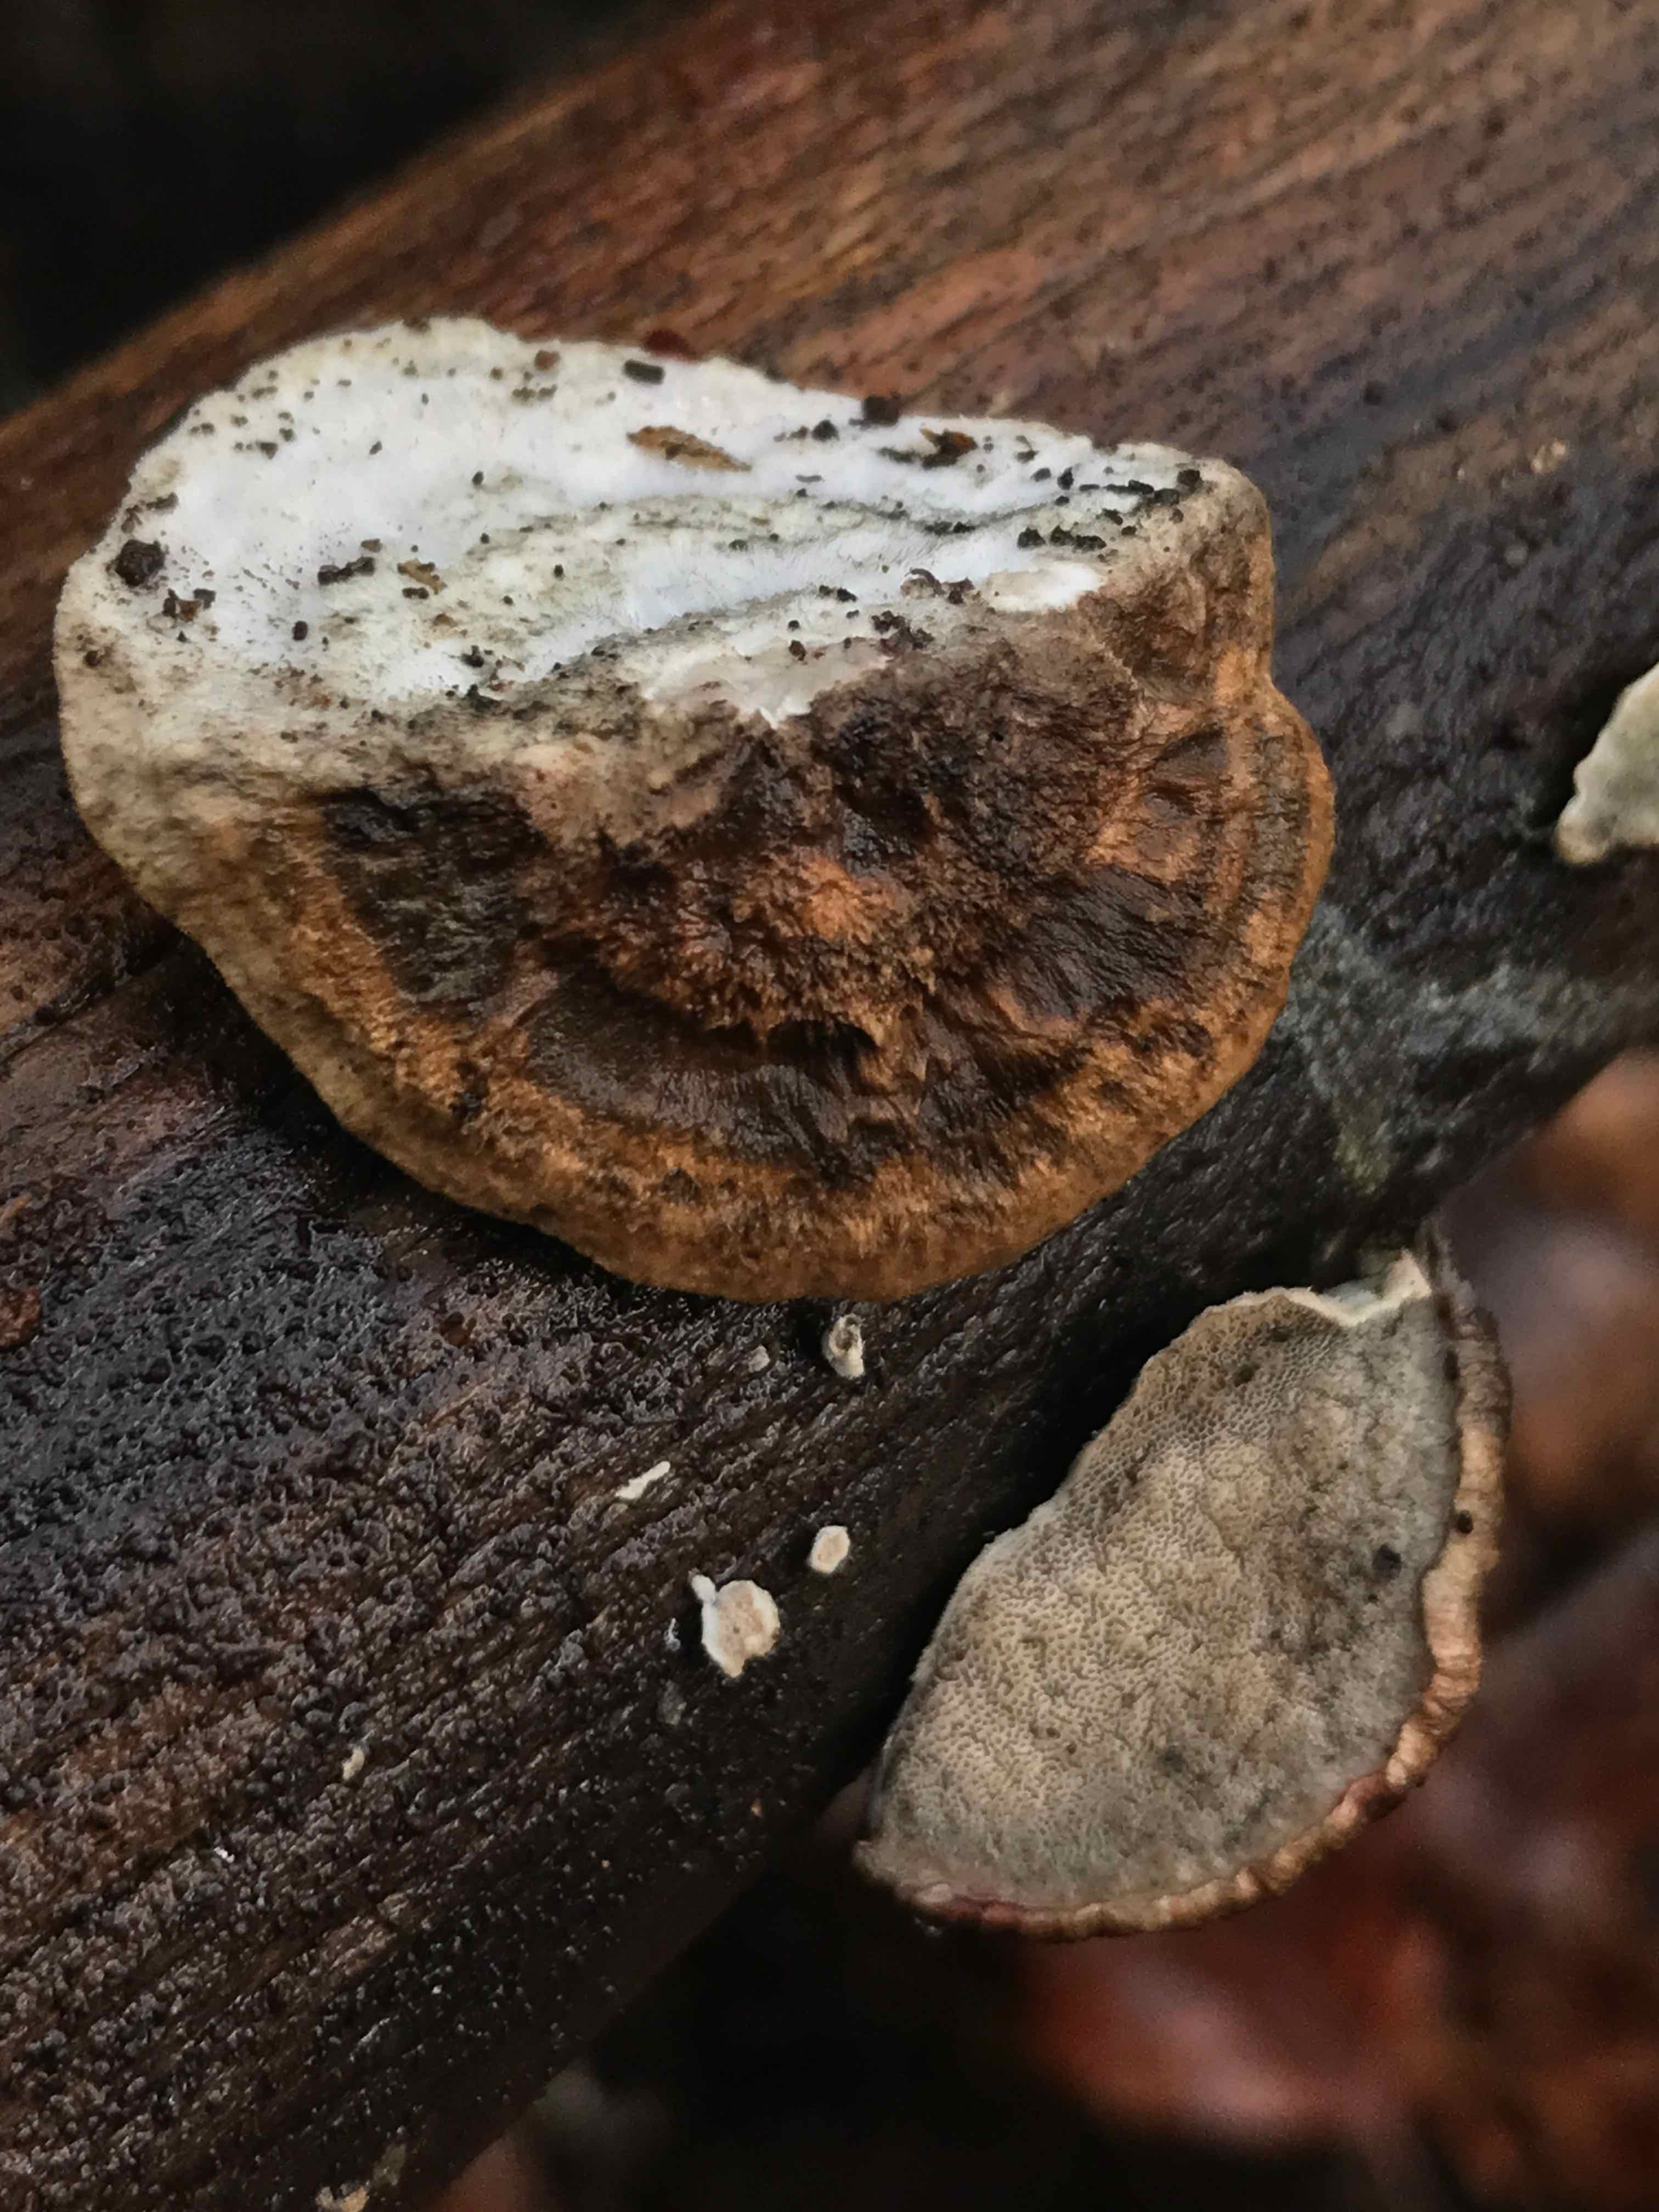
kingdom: Fungi
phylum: Basidiomycota
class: Agaricomycetes
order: Polyporales
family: Incrustoporiaceae
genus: Skeletocutis
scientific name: Skeletocutis nemoralis
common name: stor krystalporesvamp
